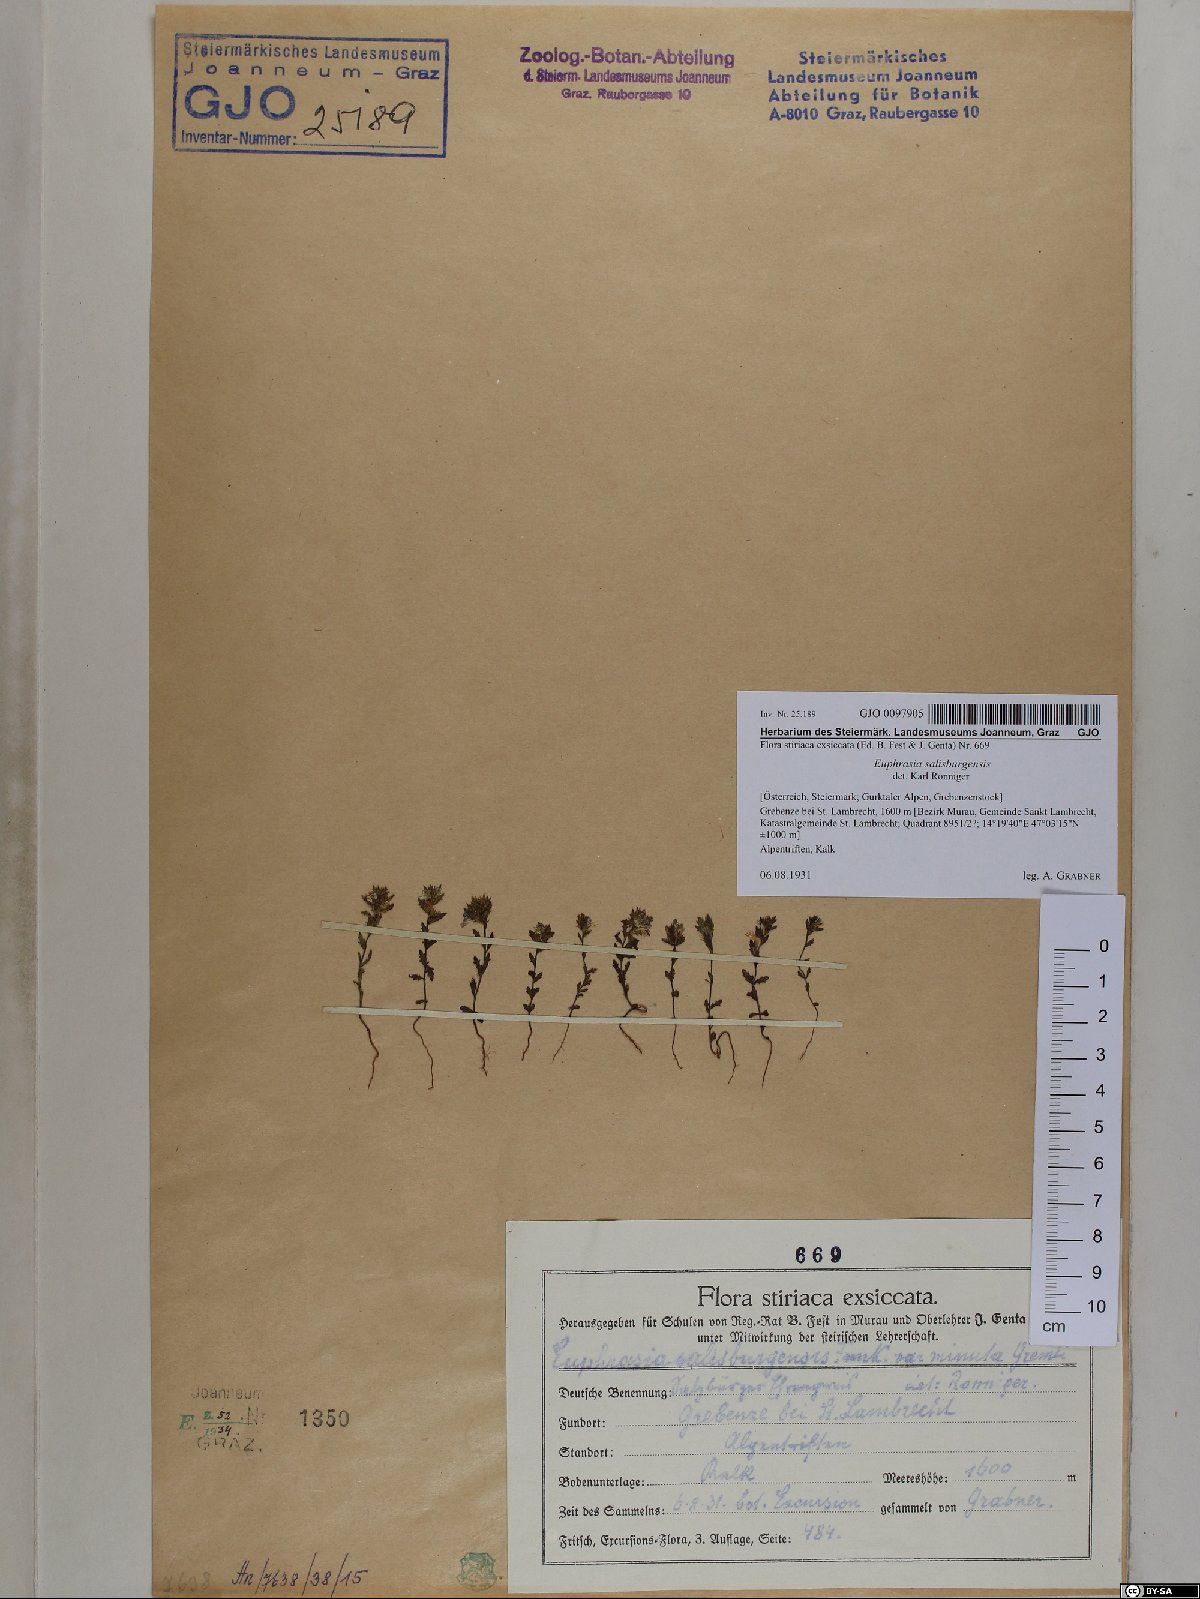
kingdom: Plantae
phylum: Tracheophyta
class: Magnoliopsida
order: Lamiales
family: Orobanchaceae
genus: Euphrasia
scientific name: Euphrasia salisburgensis
